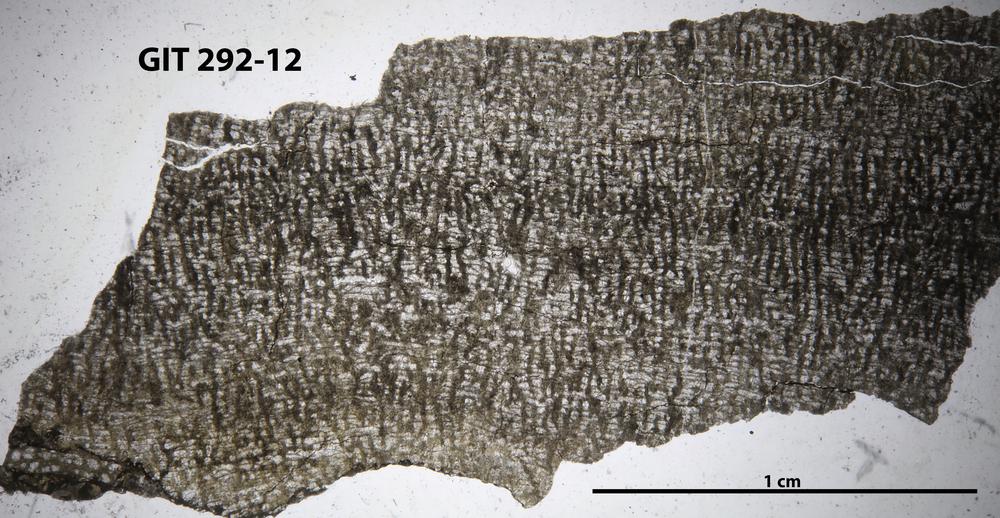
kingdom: Animalia
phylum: Porifera
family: Syringostromellidae
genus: Syringostromella
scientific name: Syringostromella
